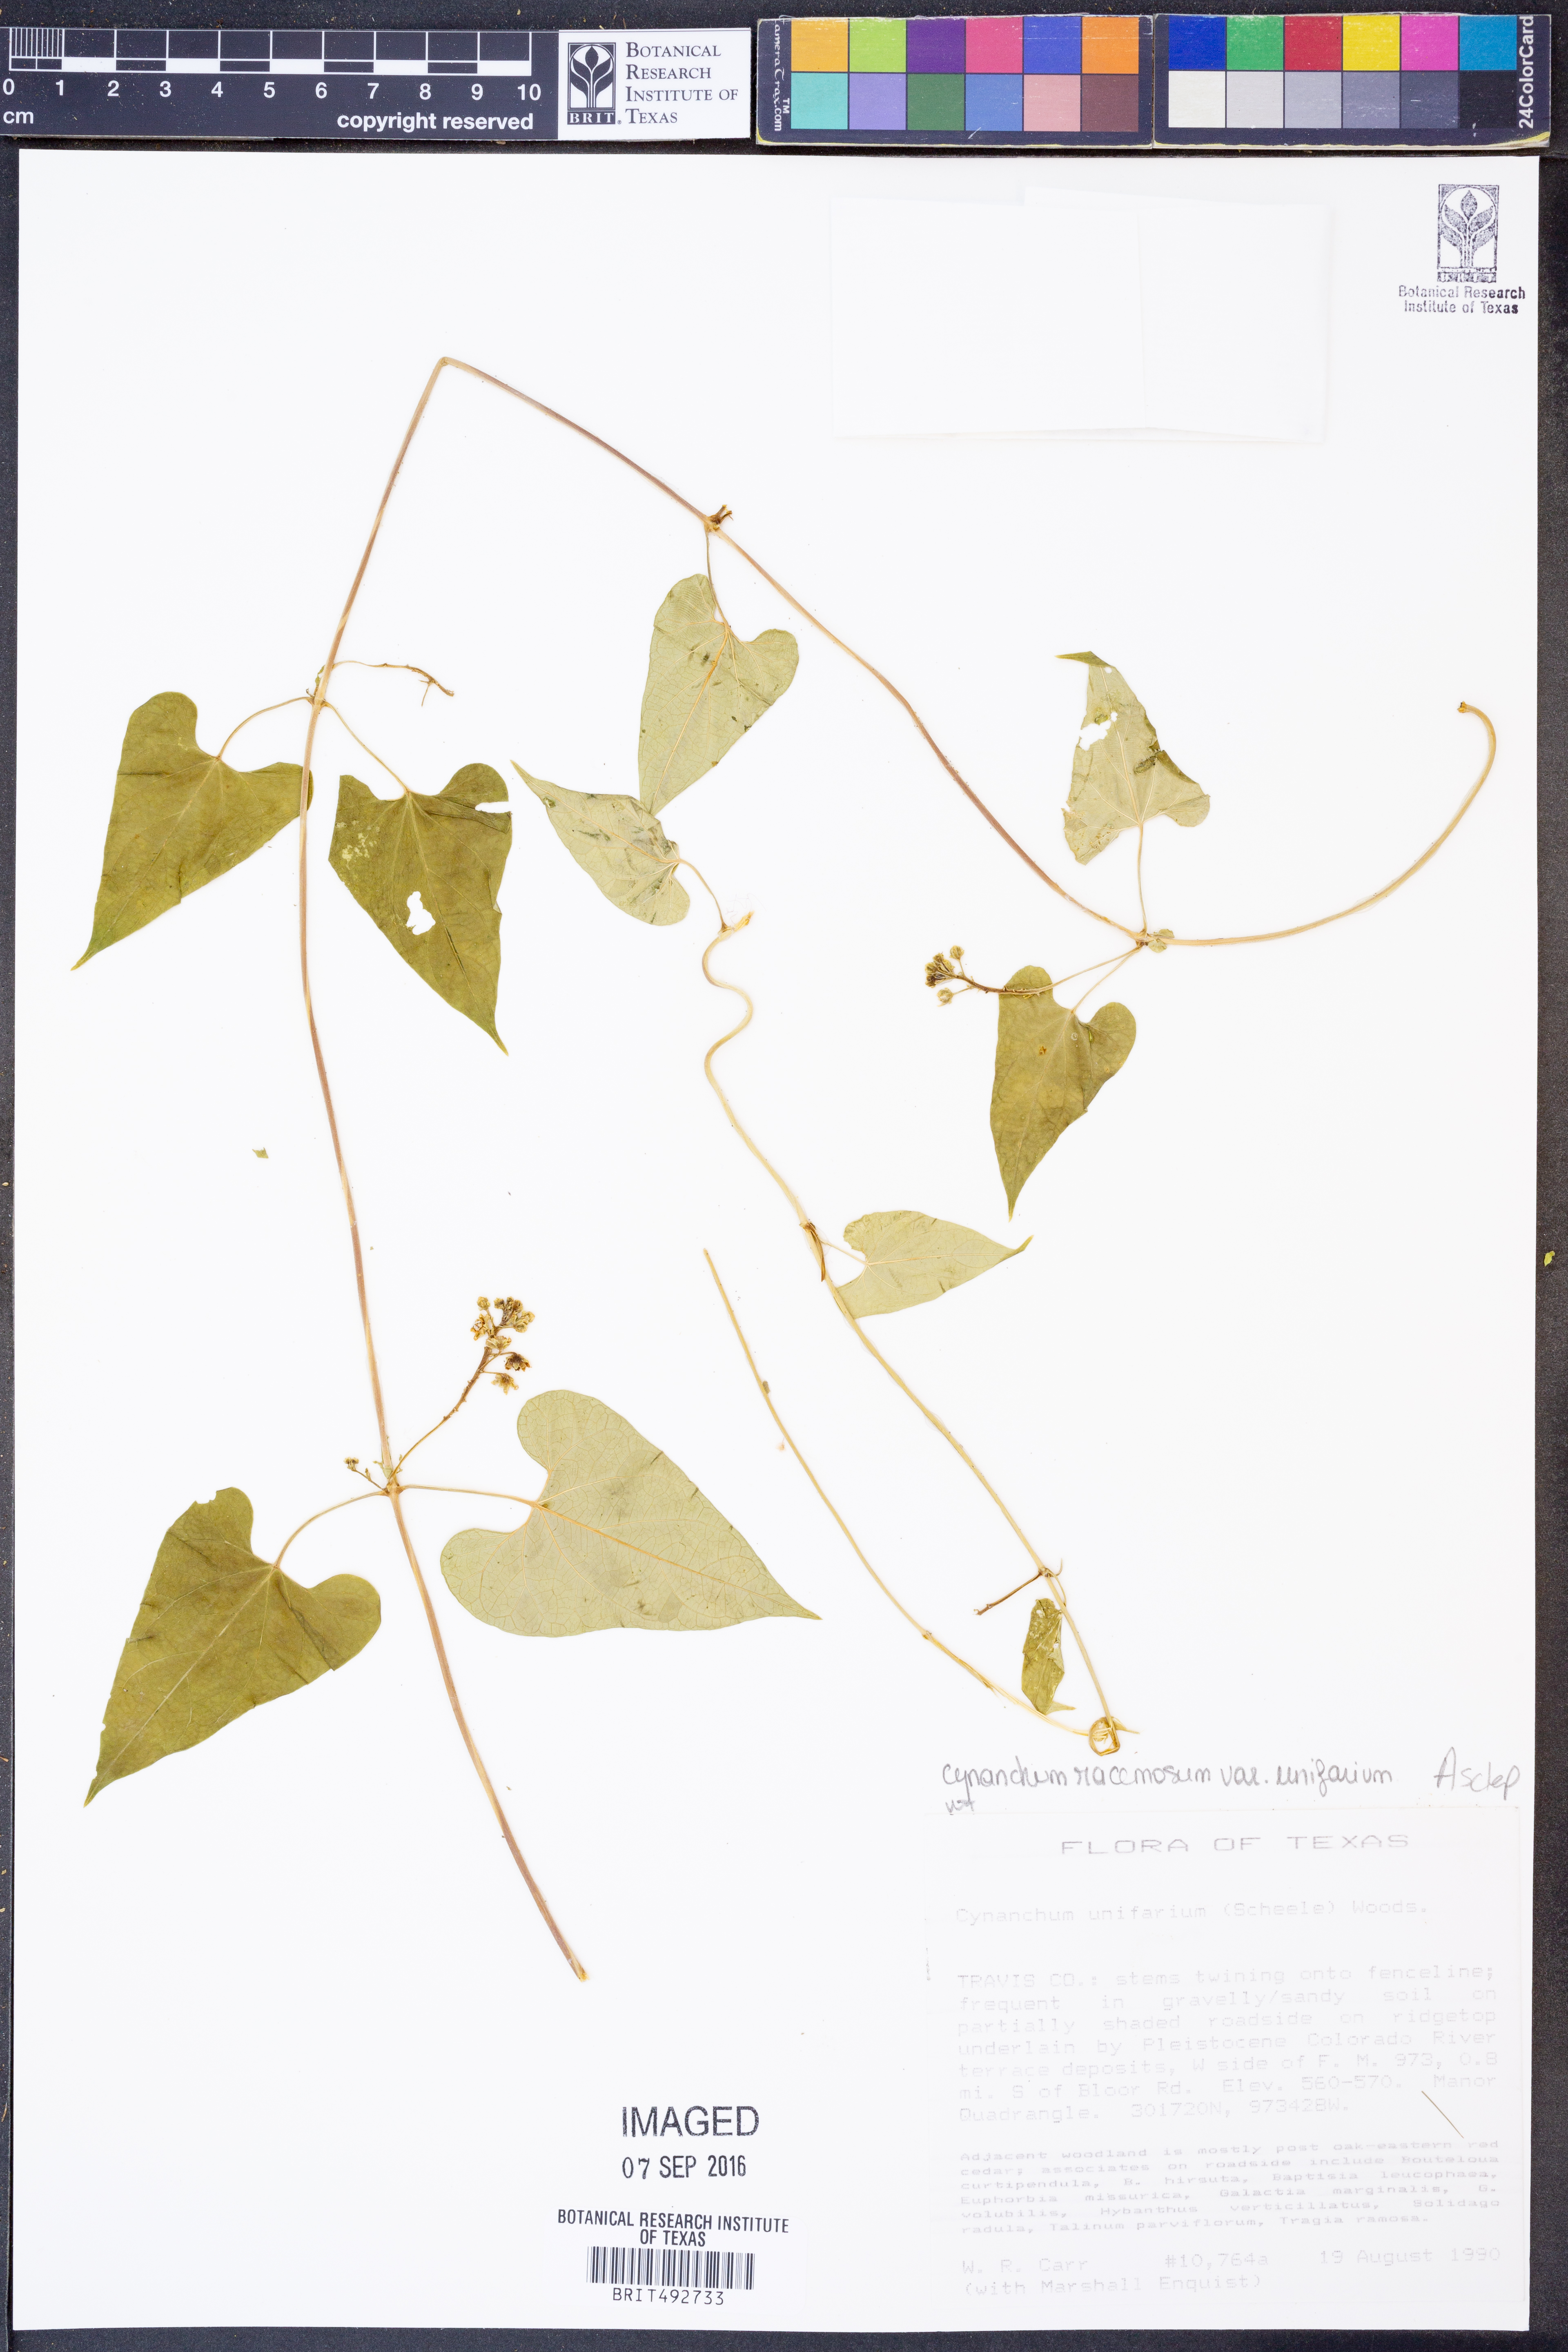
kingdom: Plantae
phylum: Tracheophyta
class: Magnoliopsida
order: Gentianales
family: Apocynaceae
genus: Cynanchum
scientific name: Cynanchum racemosum
